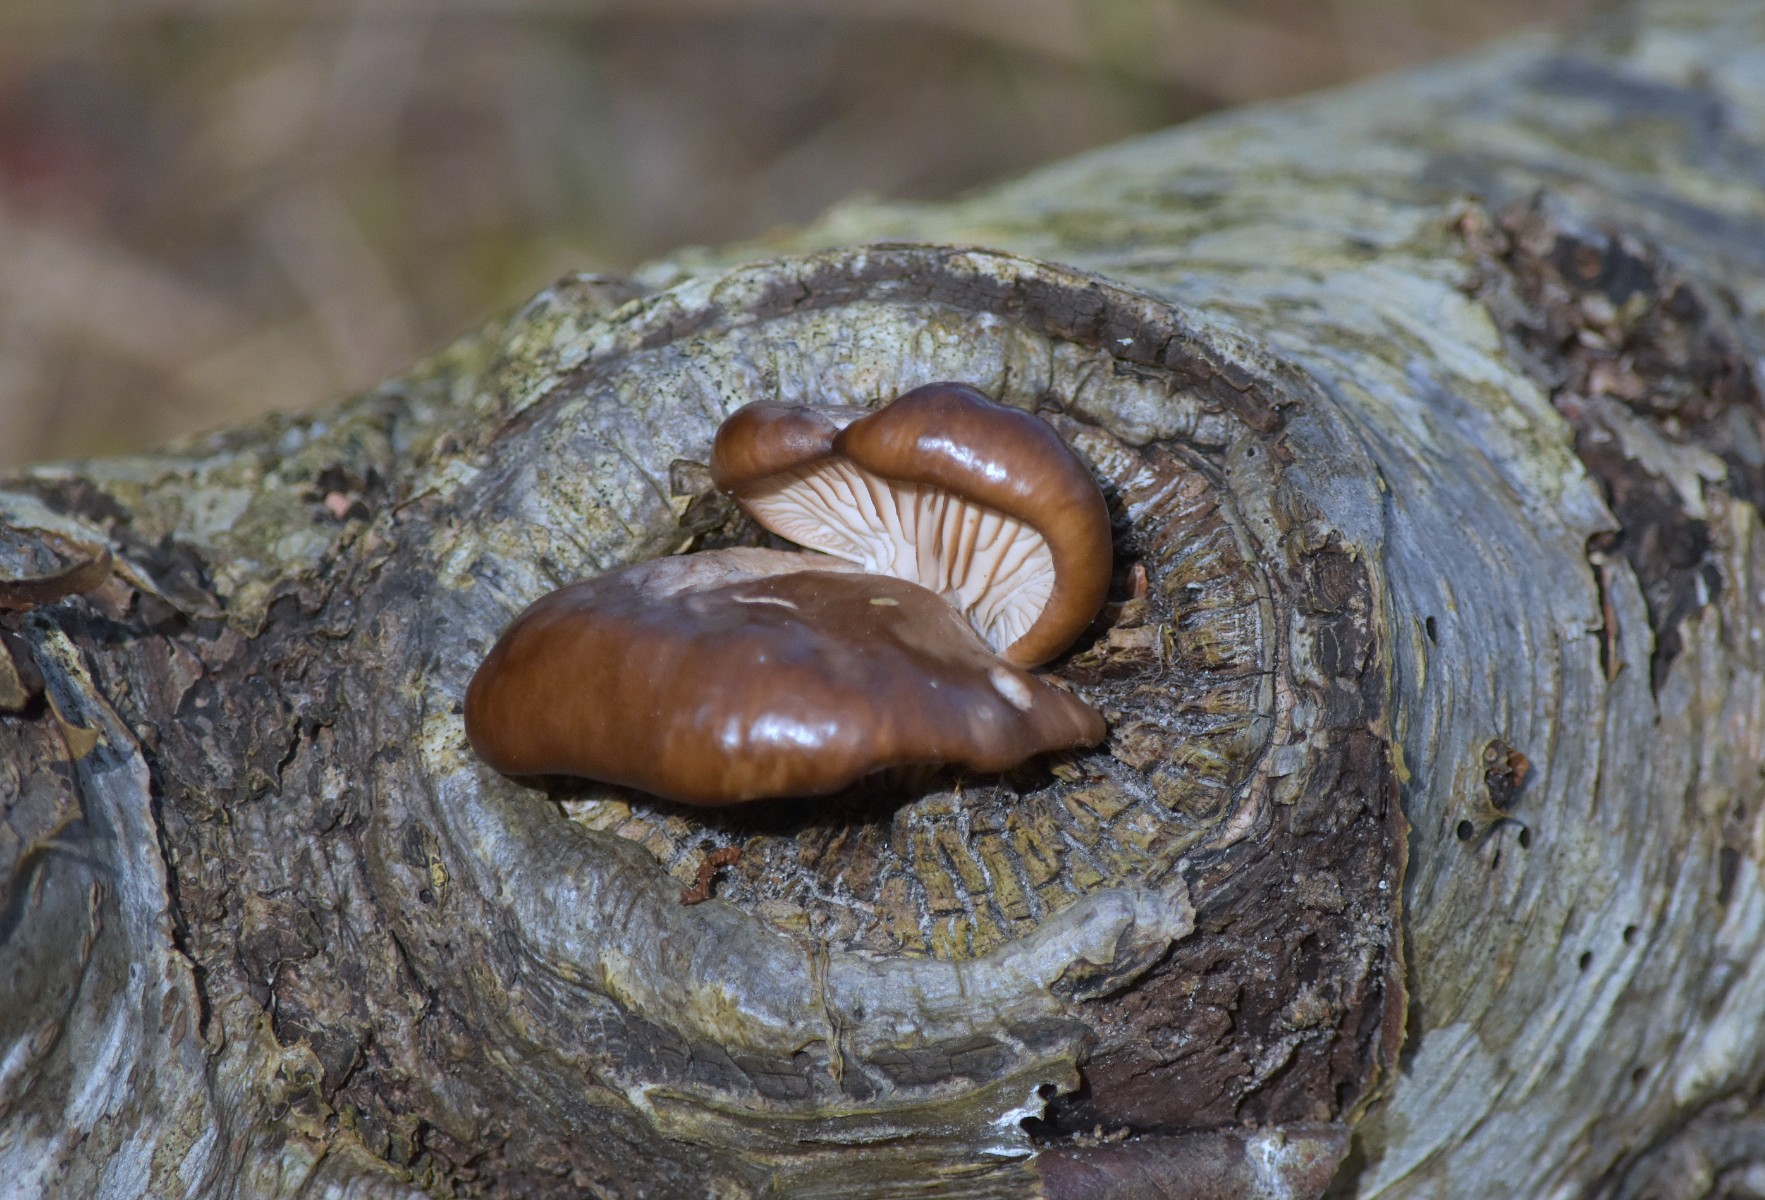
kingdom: Fungi
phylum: Basidiomycota
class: Agaricomycetes
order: Agaricales
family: Pleurotaceae
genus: Pleurotus
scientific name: Pleurotus ostreatus
